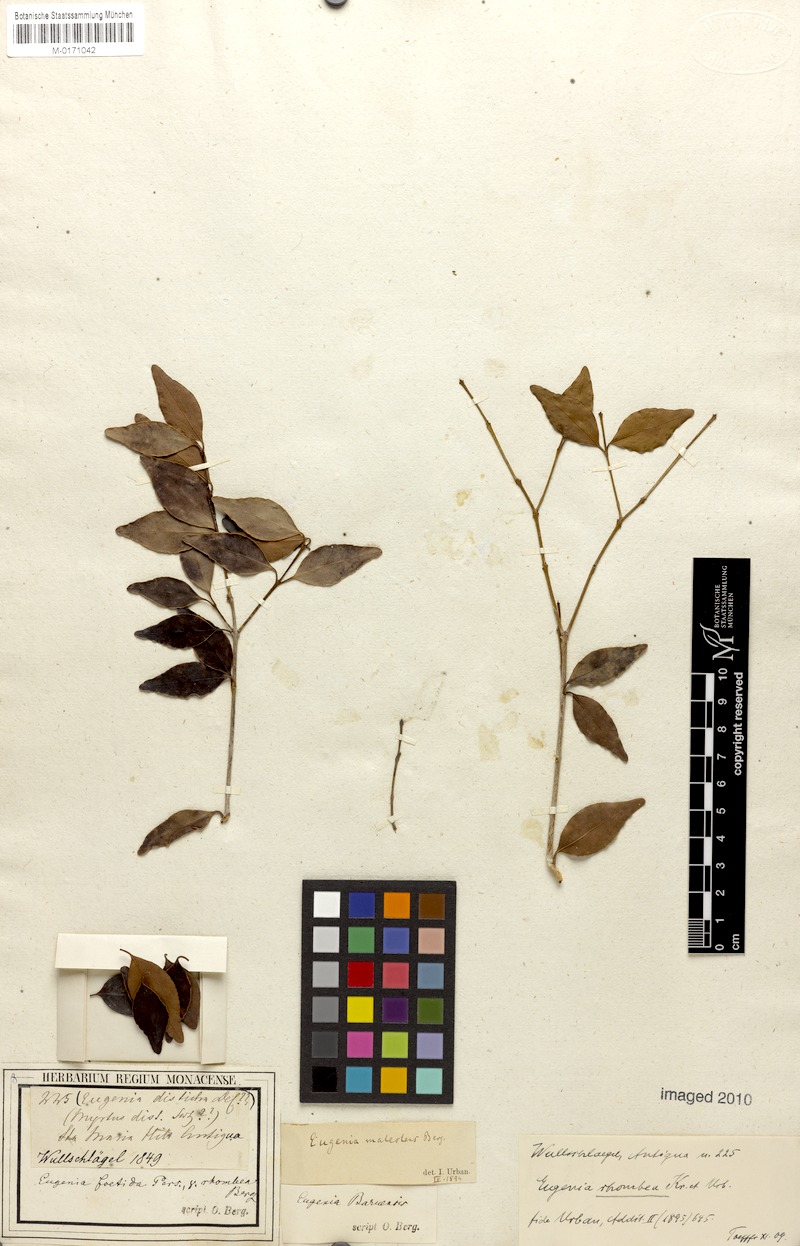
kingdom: Plantae
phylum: Tracheophyta
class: Magnoliopsida
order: Myrtales
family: Myrtaceae
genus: Eugenia
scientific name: Eugenia rhombea
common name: Pigeon berry
